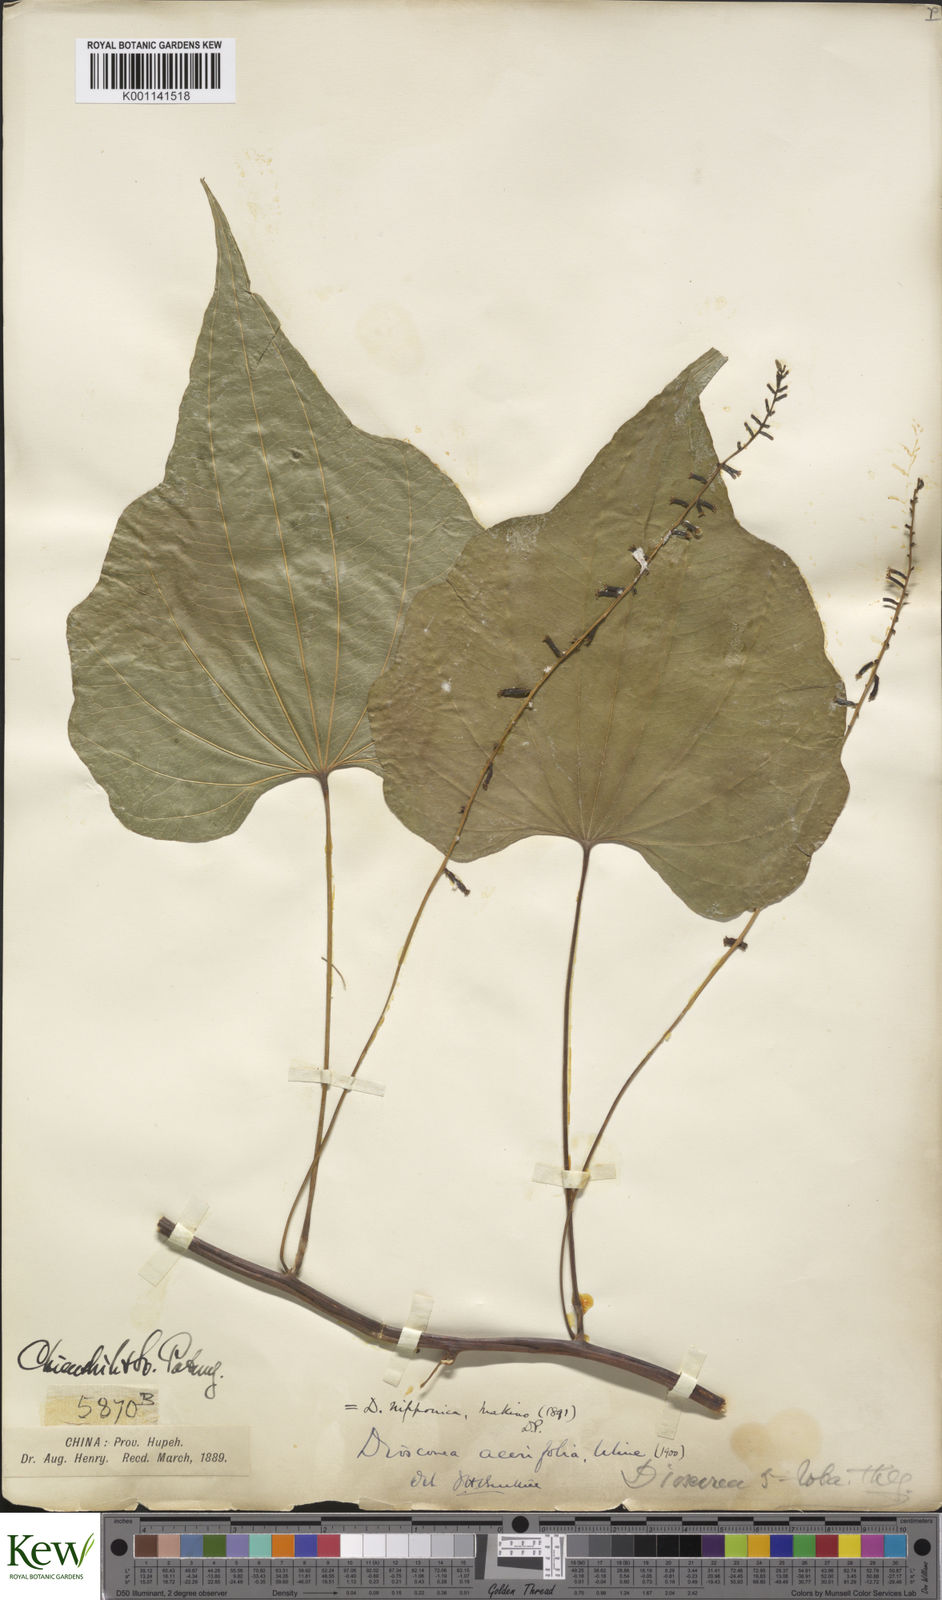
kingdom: Plantae
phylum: Tracheophyta
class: Liliopsida
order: Dioscoreales
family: Dioscoreaceae
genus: Dioscorea
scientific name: Dioscorea nipponica
